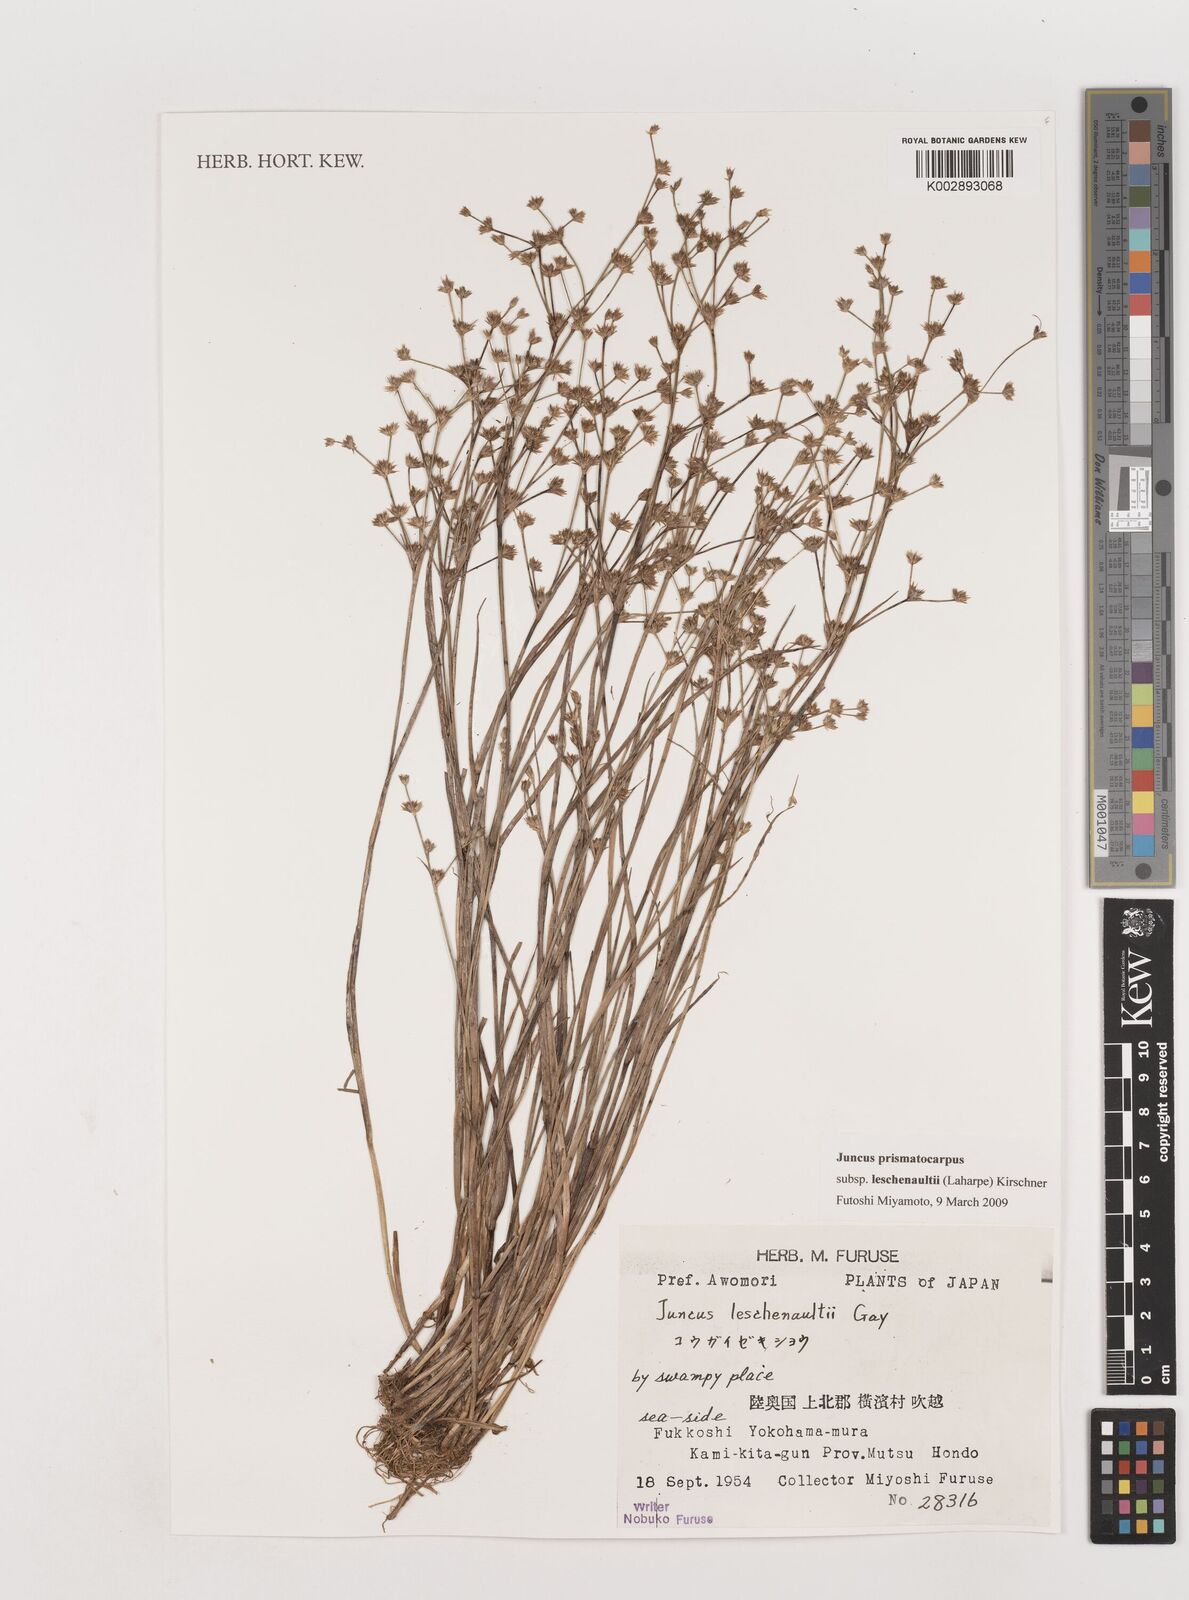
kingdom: Plantae
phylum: Tracheophyta
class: Liliopsida
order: Poales
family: Juncaceae
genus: Juncus
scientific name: Juncus prismatocarpus
